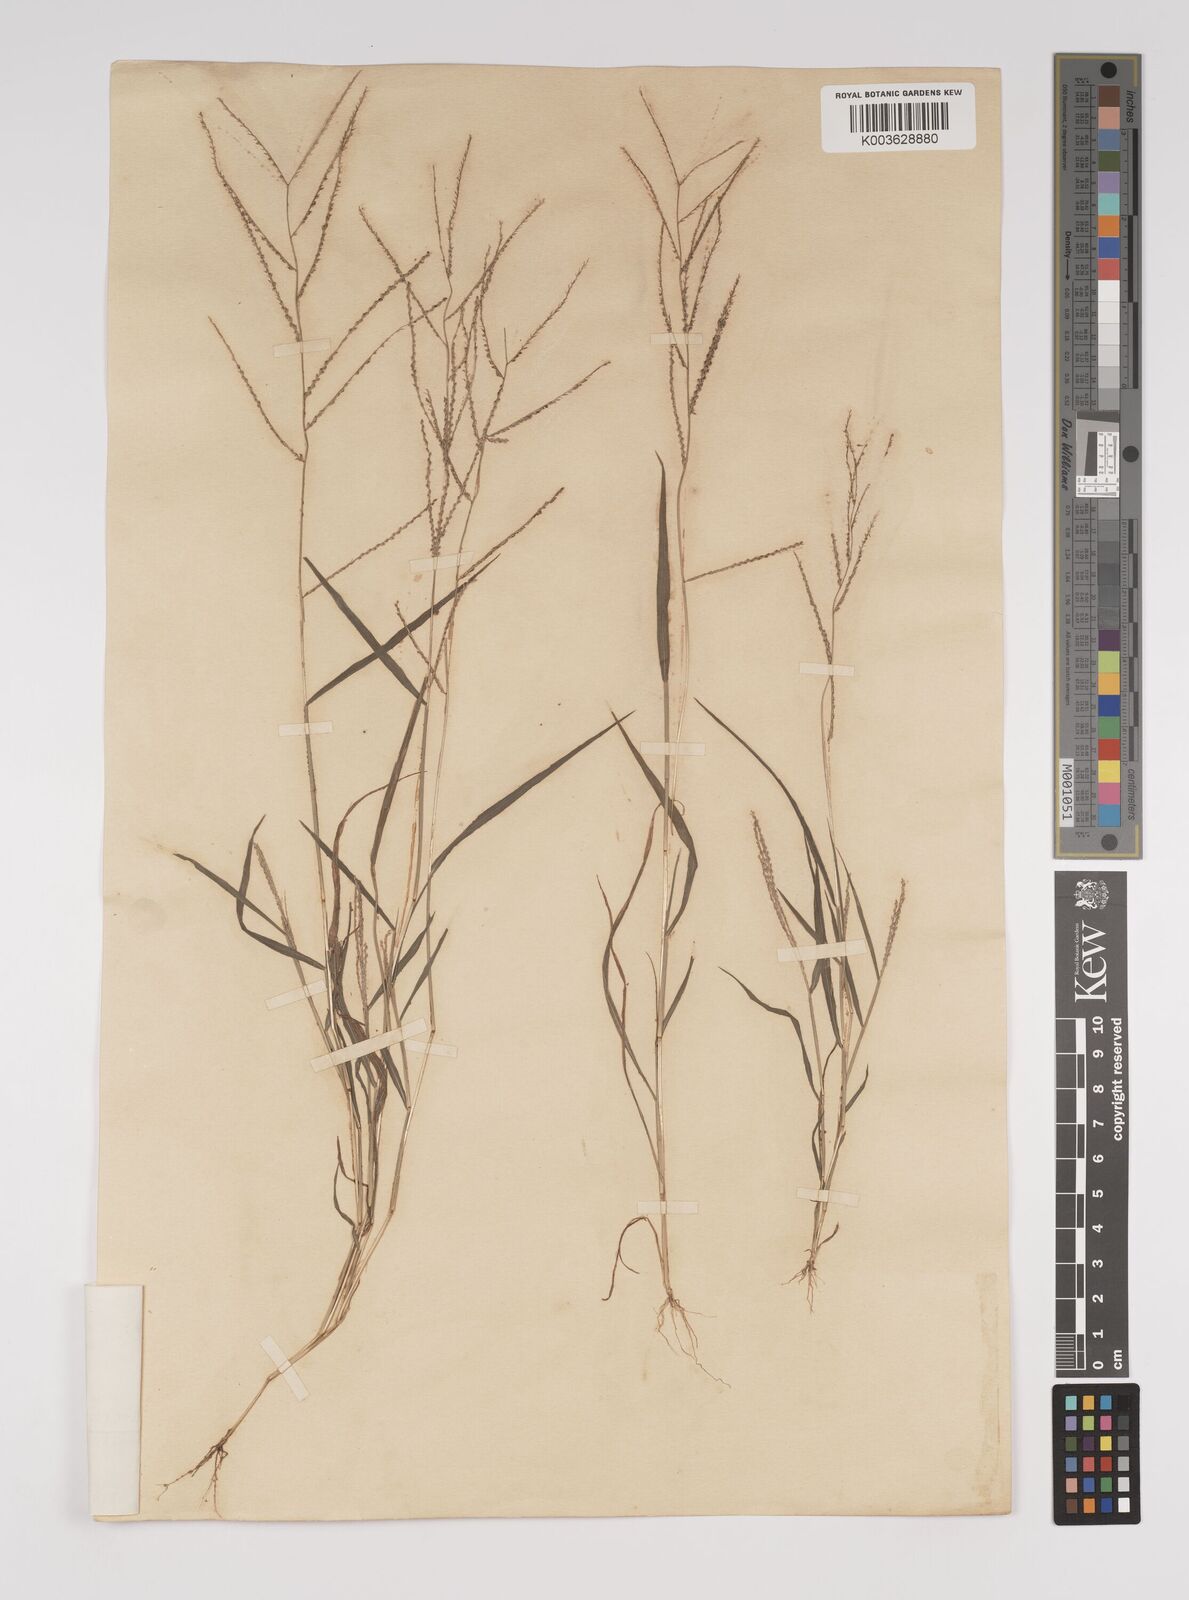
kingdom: Plantae
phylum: Tracheophyta
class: Liliopsida
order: Poales
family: Poaceae
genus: Leptochloa
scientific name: Leptochloa panicea
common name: Mucronate sprangletop
